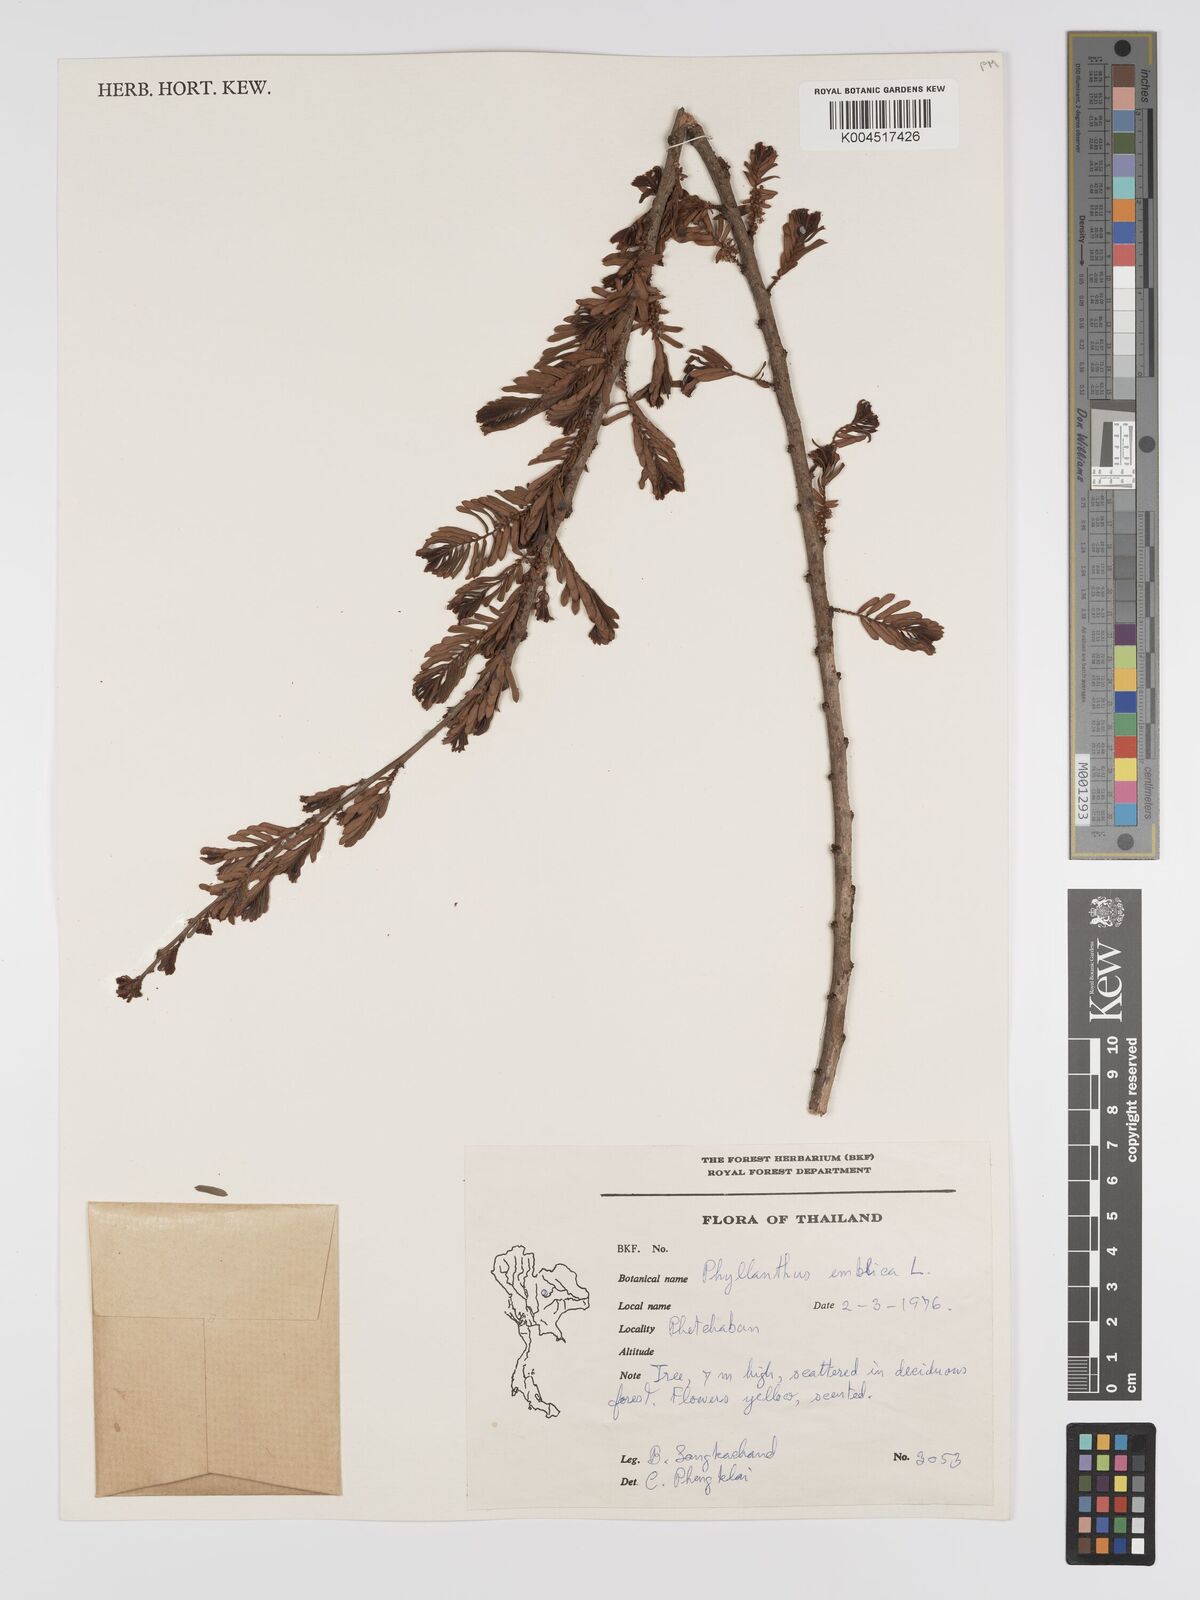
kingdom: Plantae
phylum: Tracheophyta
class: Magnoliopsida
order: Malpighiales
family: Phyllanthaceae
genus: Phyllanthus
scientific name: Phyllanthus emblica
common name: Indian gooseberry
